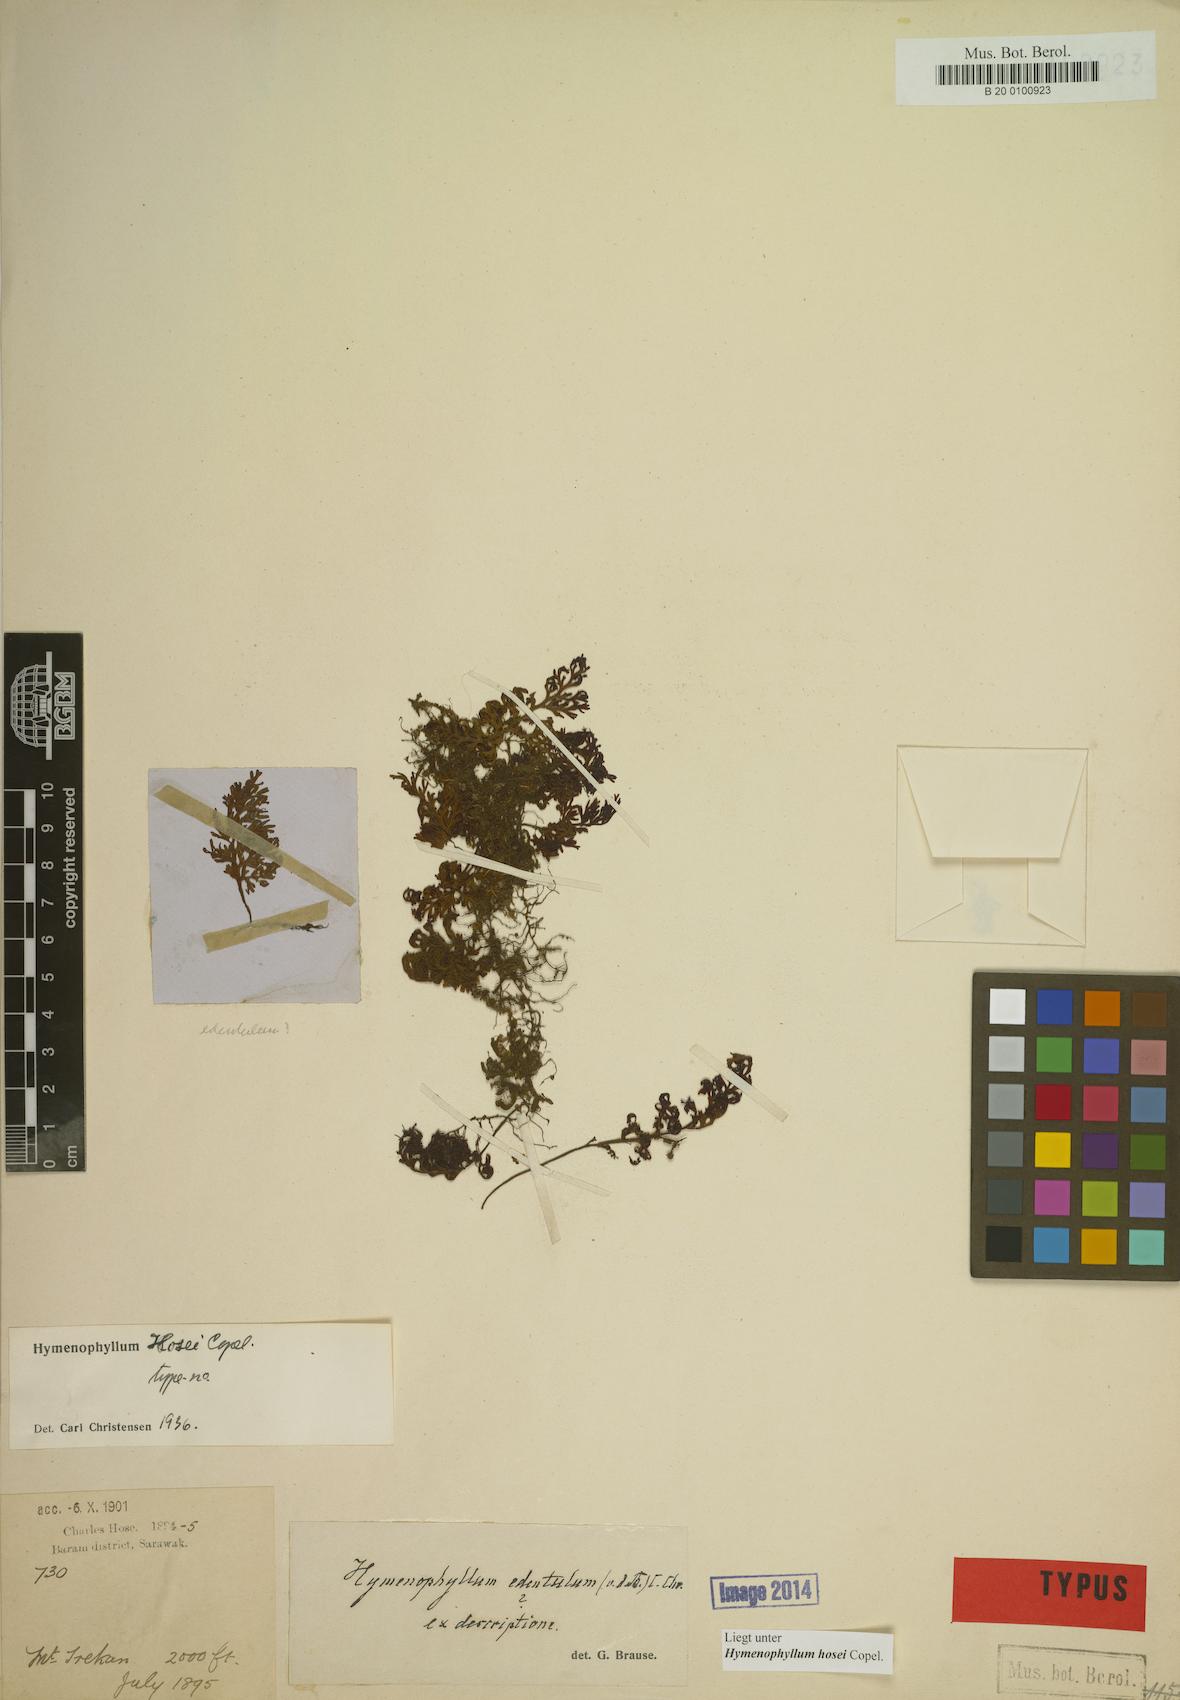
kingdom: Plantae
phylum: Tracheophyta
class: Polypodiopsida
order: Hymenophyllales
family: Hymenophyllaceae
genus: Hymenophyllum
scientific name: Hymenophyllum hosei
